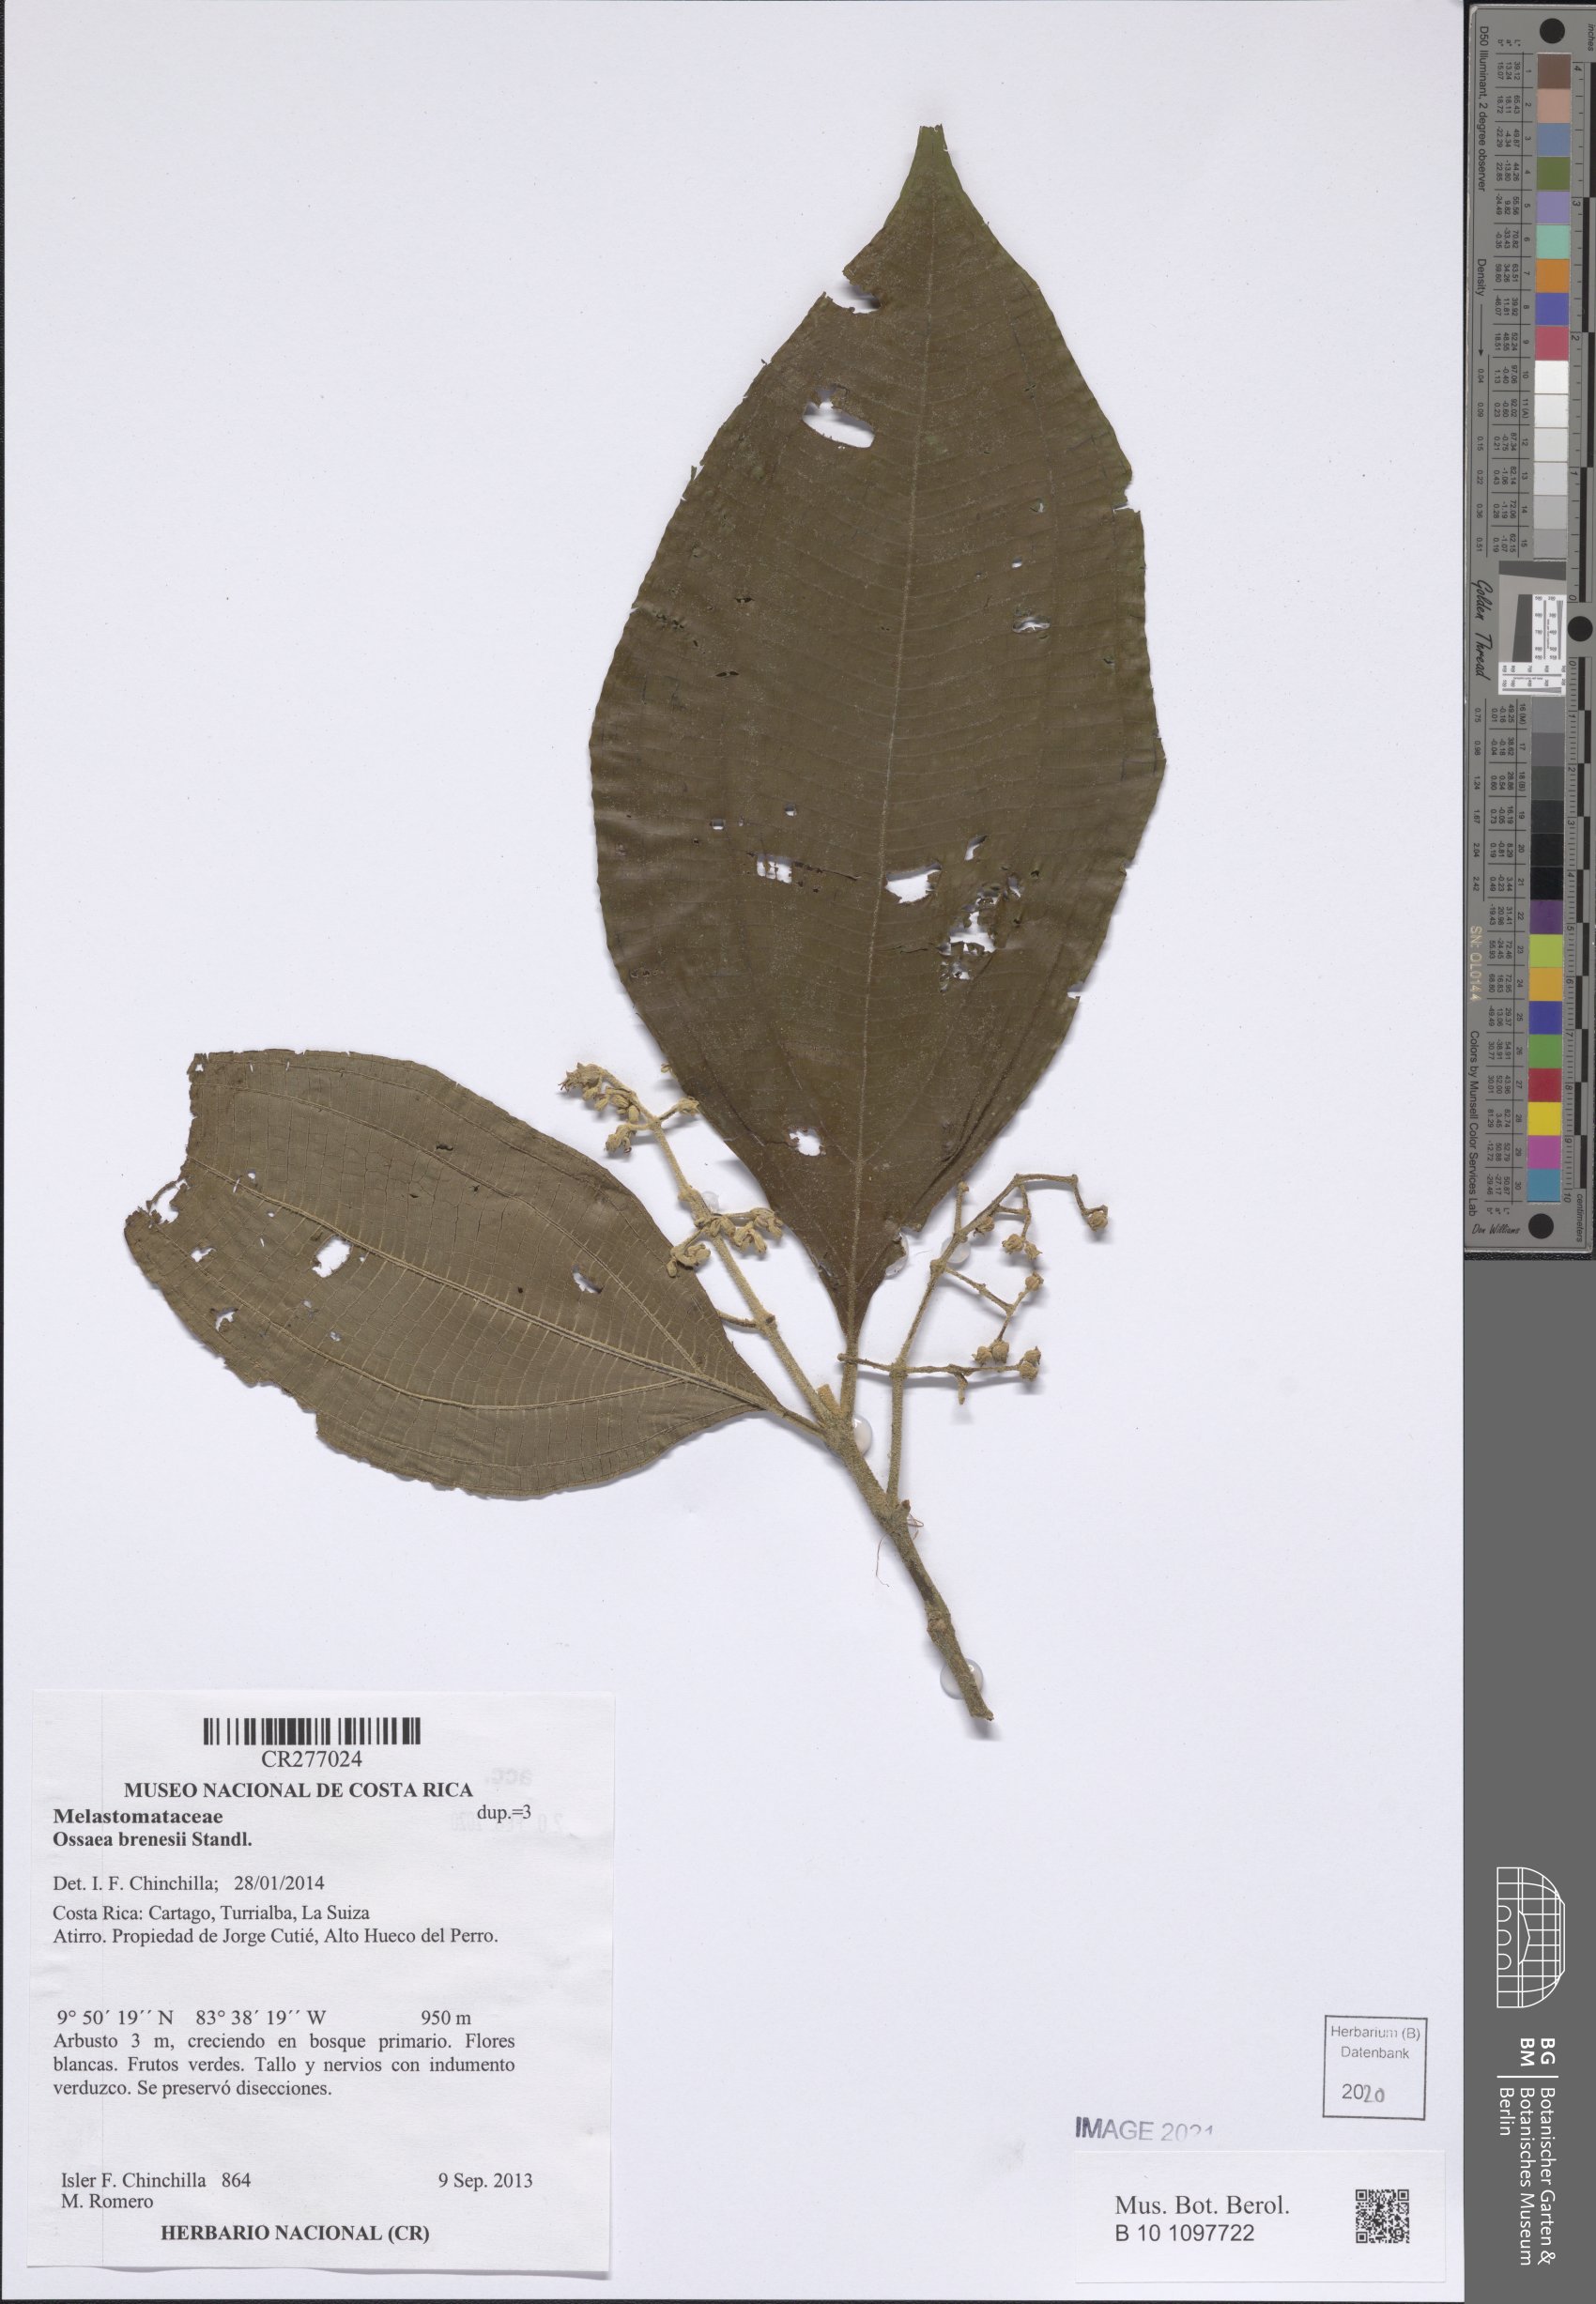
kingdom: Plantae
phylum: Tracheophyta
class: Magnoliopsida
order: Myrtales
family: Melastomataceae
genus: Miconia
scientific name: Miconia albertobrenesii
